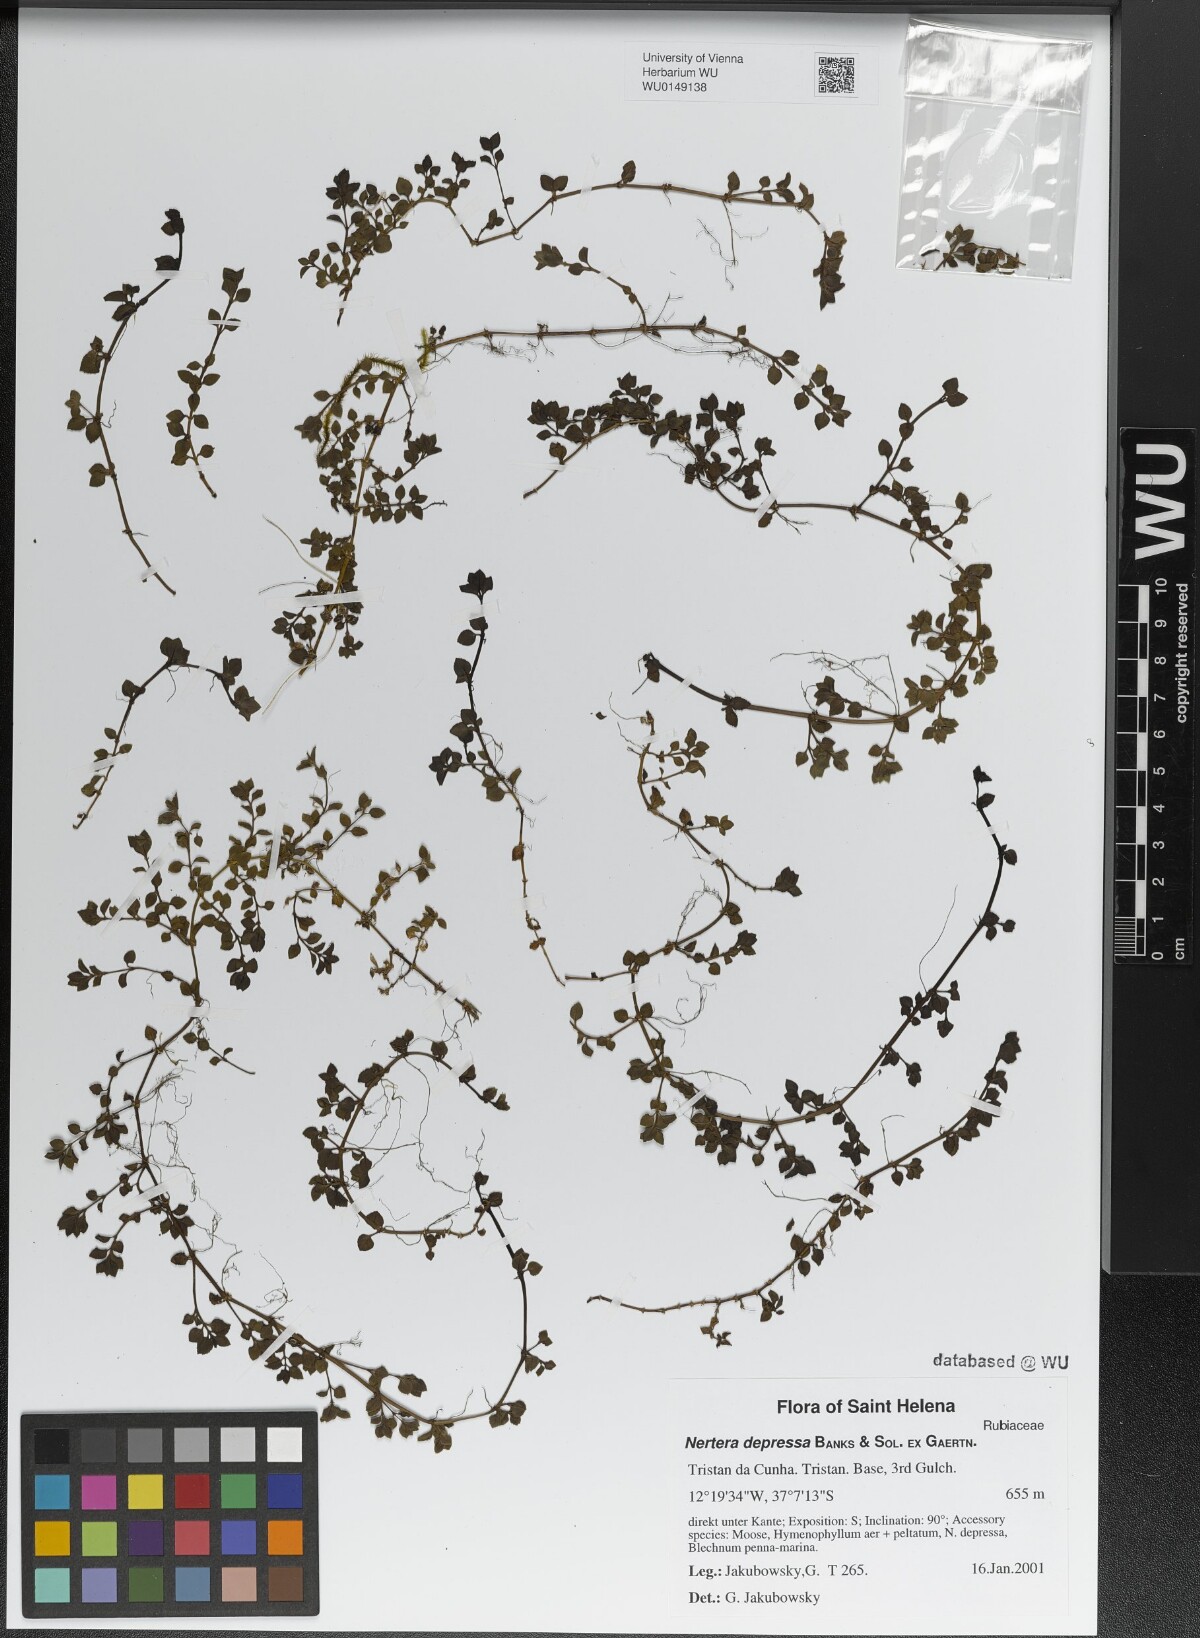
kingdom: Plantae
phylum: Tracheophyta
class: Magnoliopsida
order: Gentianales
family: Rubiaceae
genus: Nertera
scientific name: Nertera granadensis
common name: Beadplant
